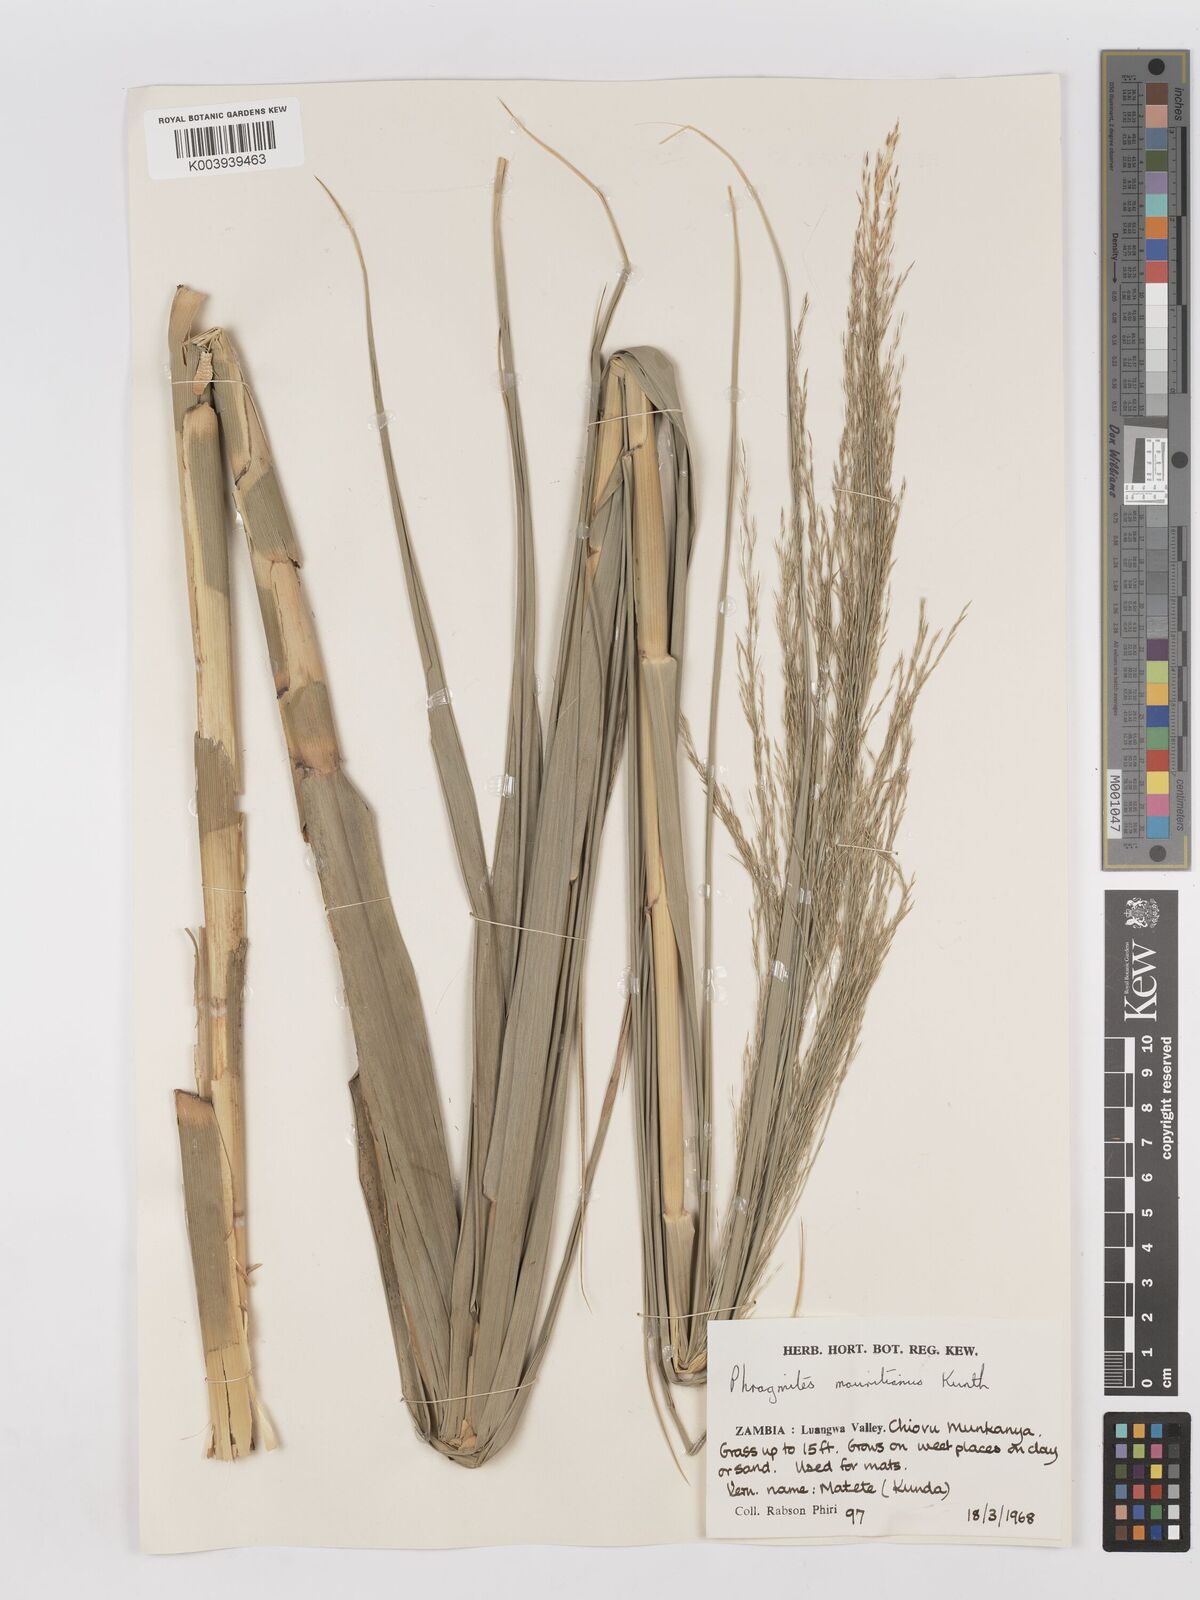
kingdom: Plantae
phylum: Tracheophyta
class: Liliopsida
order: Poales
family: Poaceae
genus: Phragmites
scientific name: Phragmites mauritianus
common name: Reed grass
